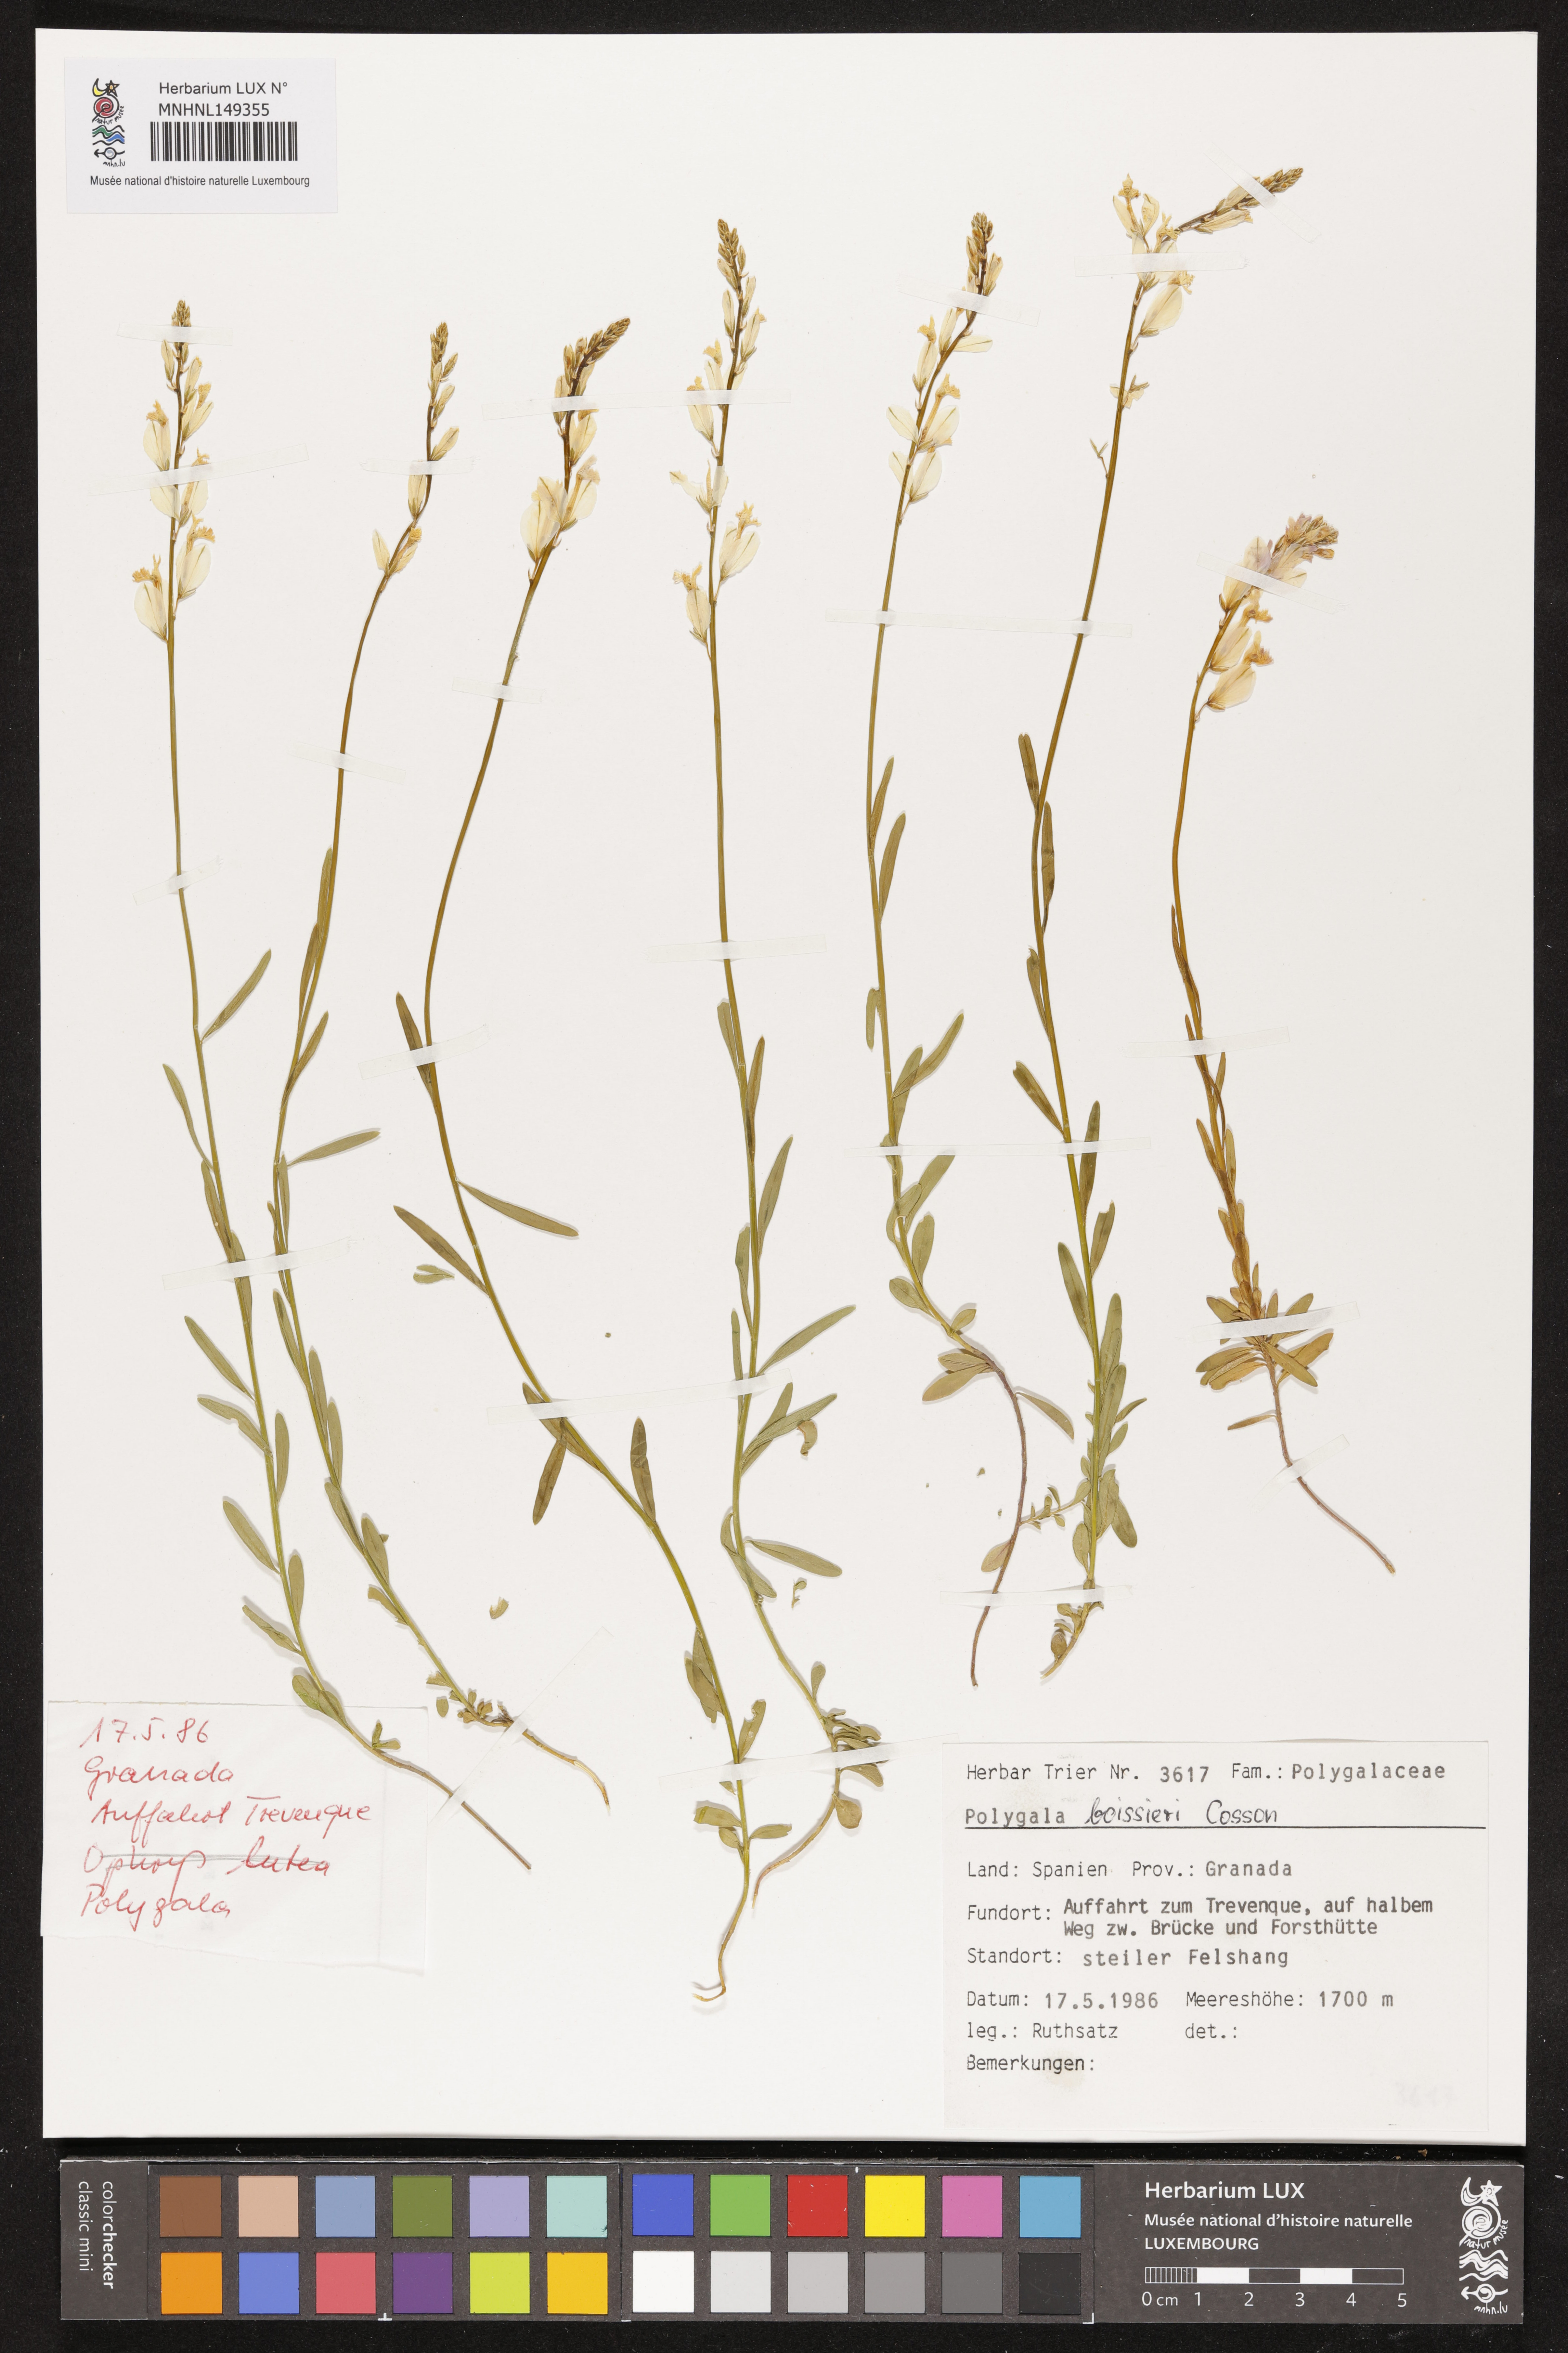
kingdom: Plantae
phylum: Tracheophyta
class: Magnoliopsida
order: Fabales
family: Polygalaceae
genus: Polygala
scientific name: Polygala boissieri
